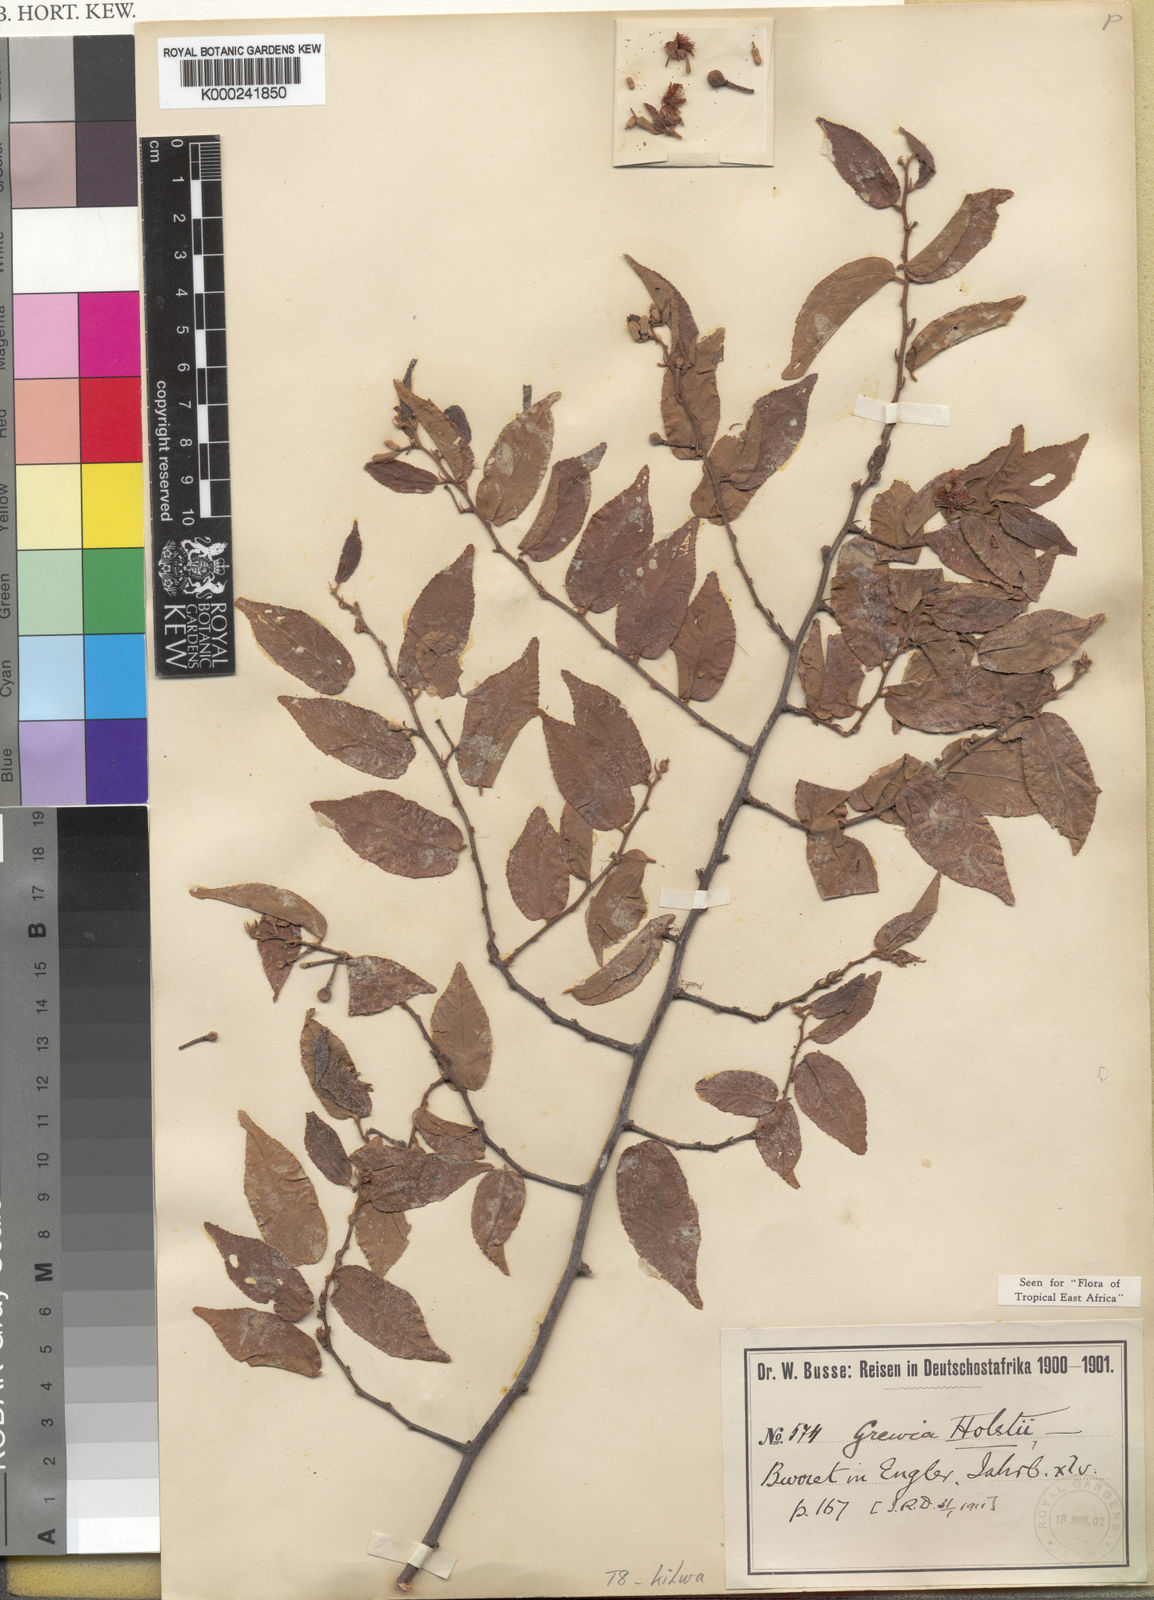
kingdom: Plantae
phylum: Tracheophyta
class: Magnoliopsida
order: Malvales
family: Malvaceae
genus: Grewia
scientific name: Grewia holstii
